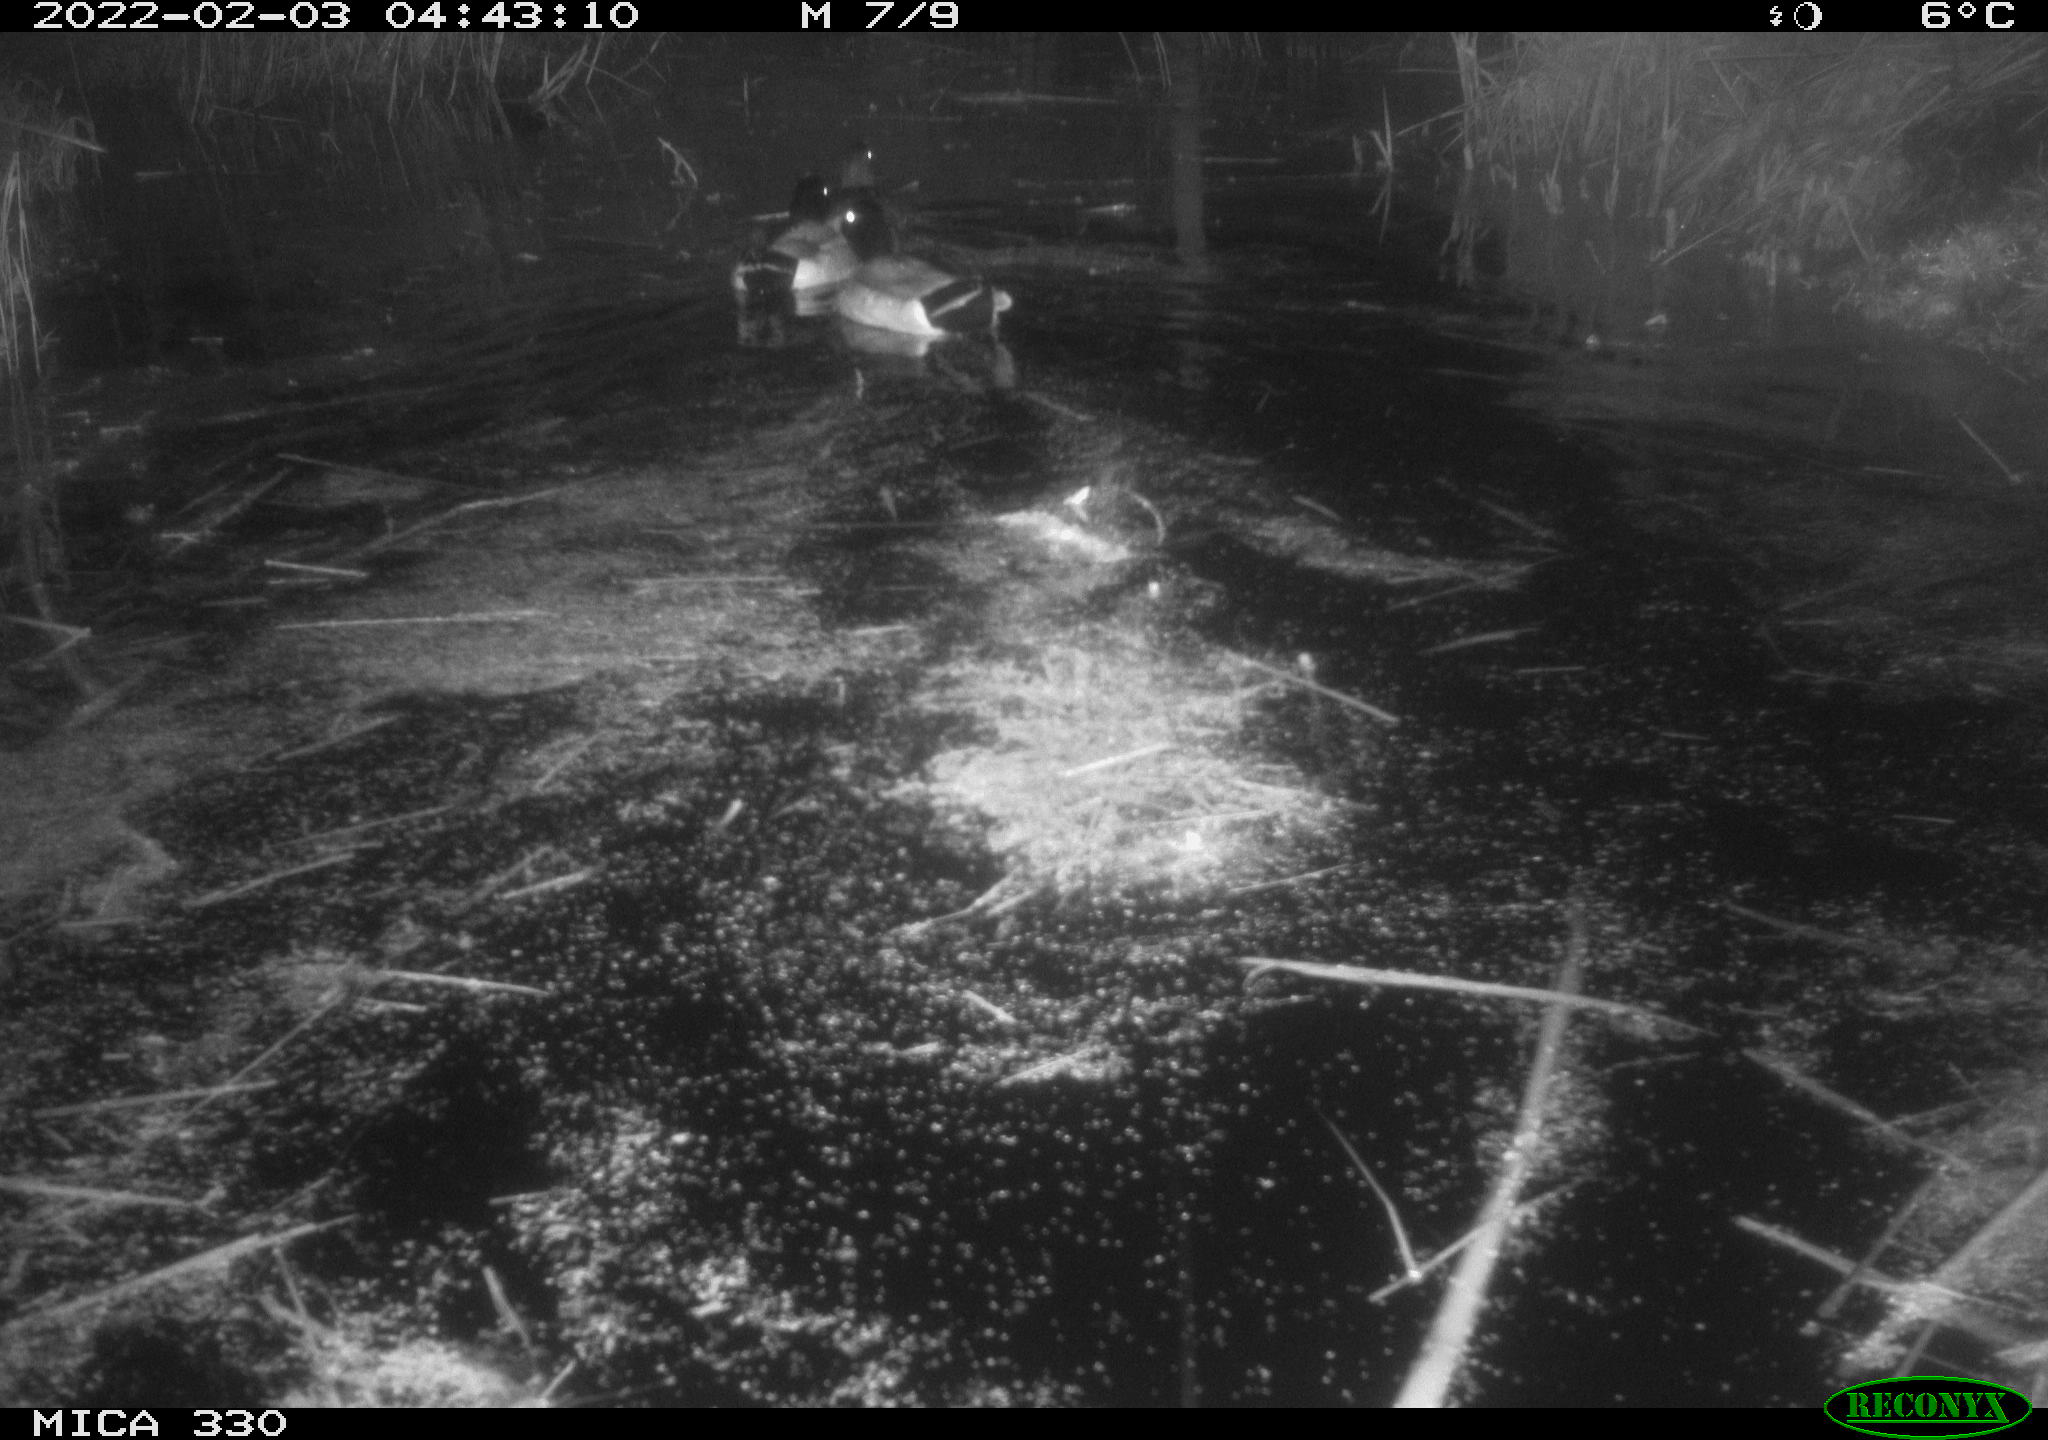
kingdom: Animalia
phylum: Chordata
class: Aves
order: Anseriformes
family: Anatidae
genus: Anas
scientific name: Anas platyrhynchos
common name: Mallard
